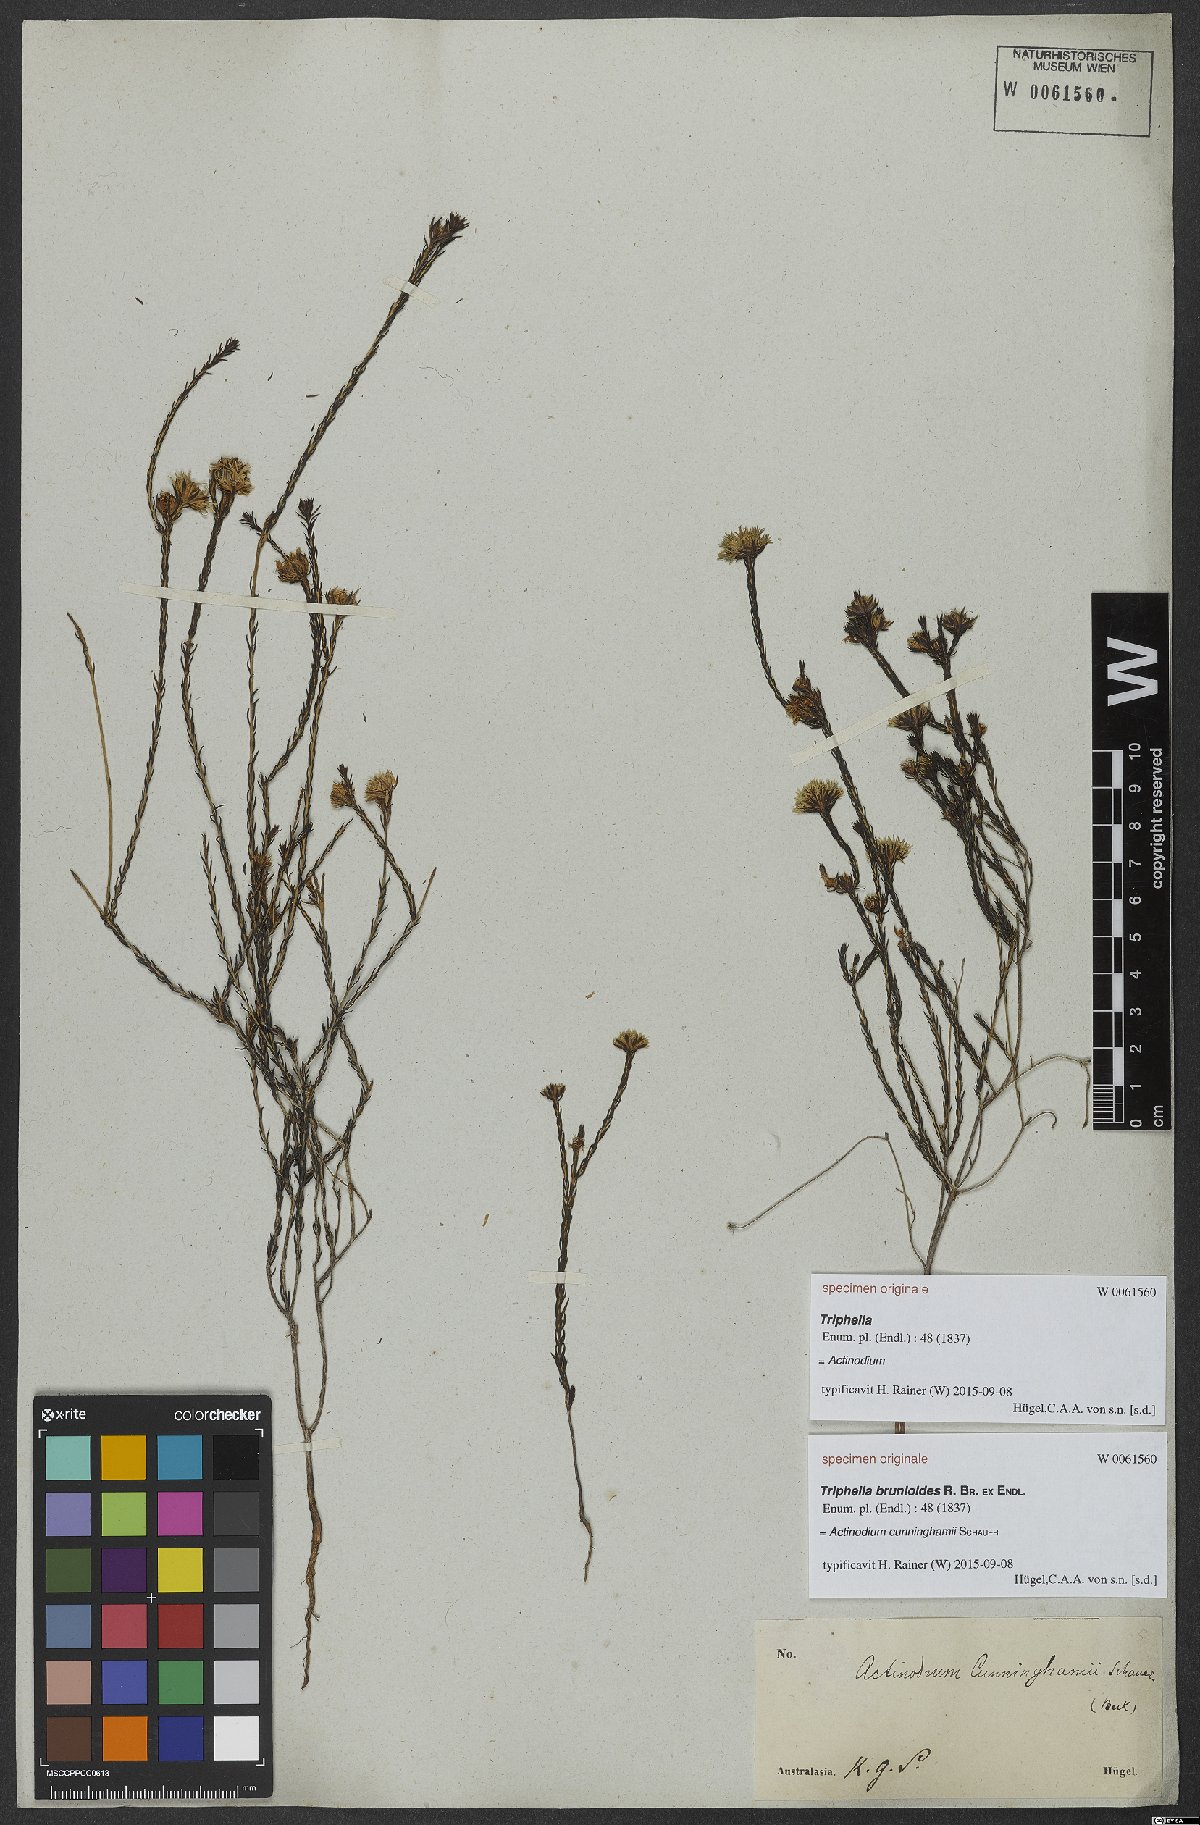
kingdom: Plantae
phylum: Tracheophyta
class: Magnoliopsida
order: Myrtales
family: Myrtaceae
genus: Actinodium
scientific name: Actinodium cunninghamii
